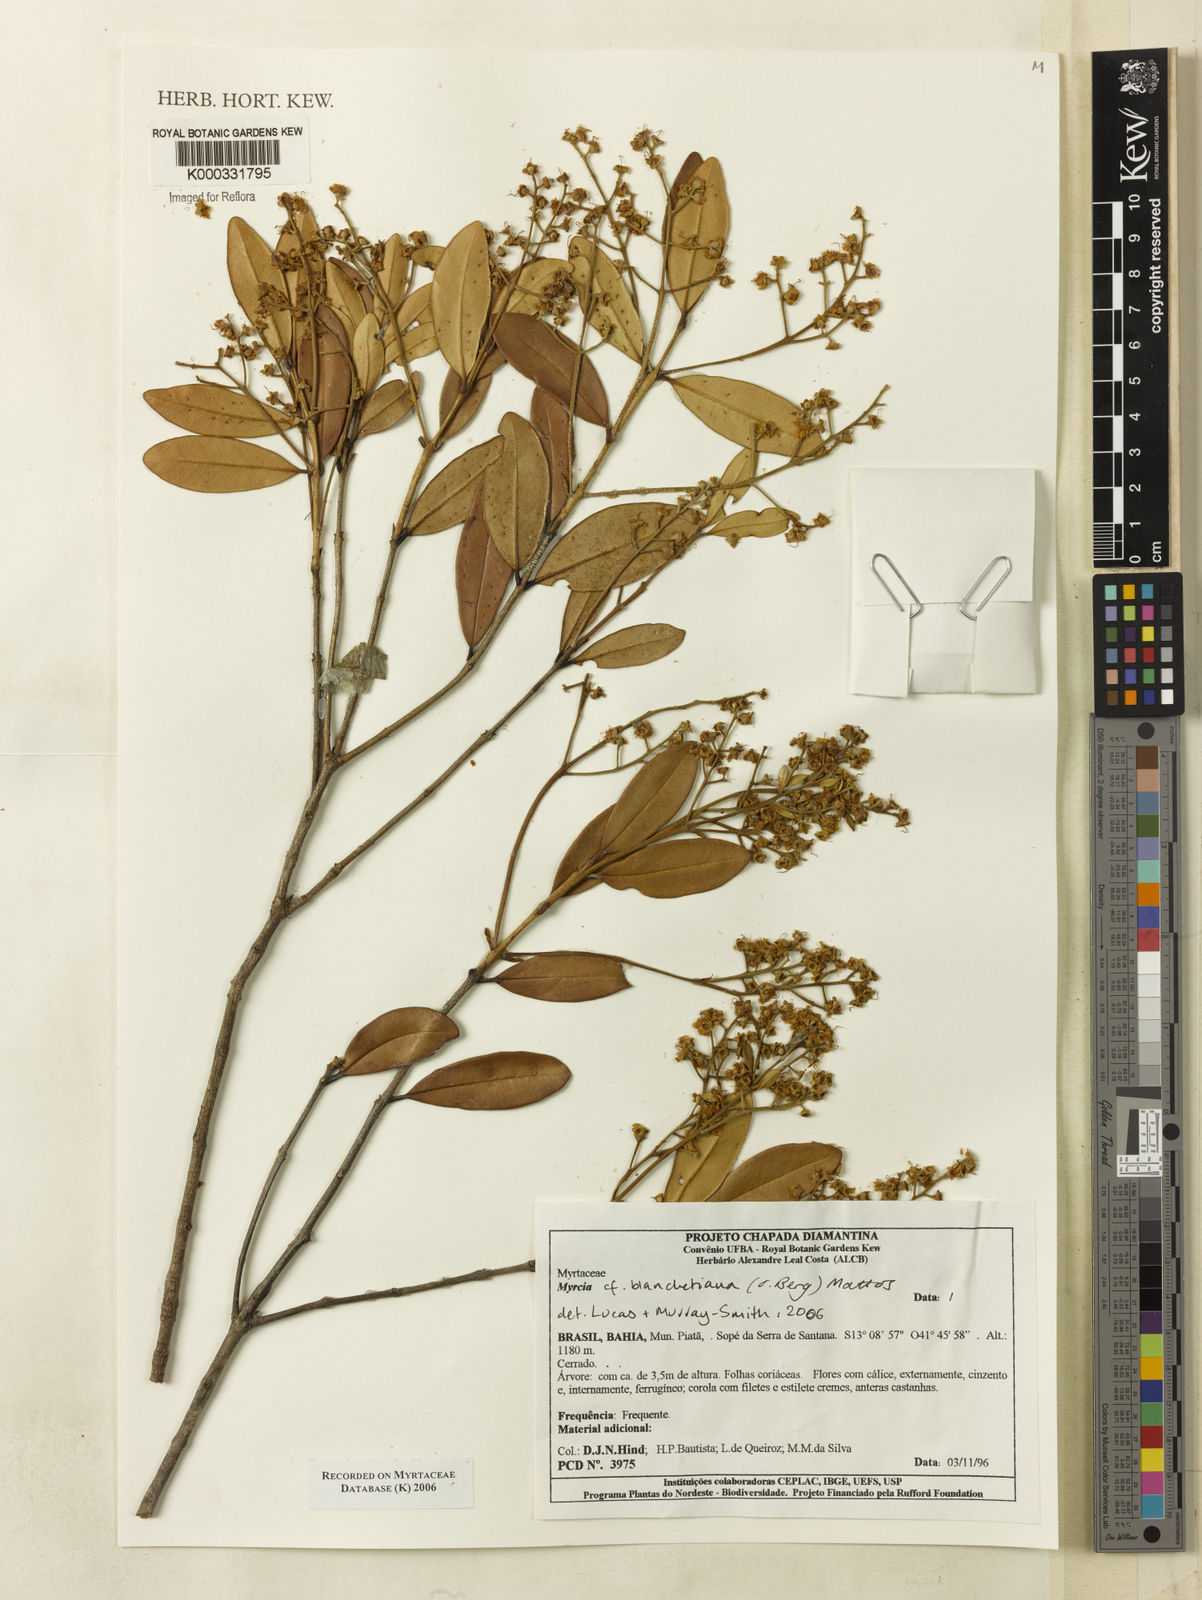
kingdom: Plantae
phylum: Tracheophyta
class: Magnoliopsida
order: Myrtales
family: Myrtaceae
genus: Myrcia
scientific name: Myrcia blanchetiana
